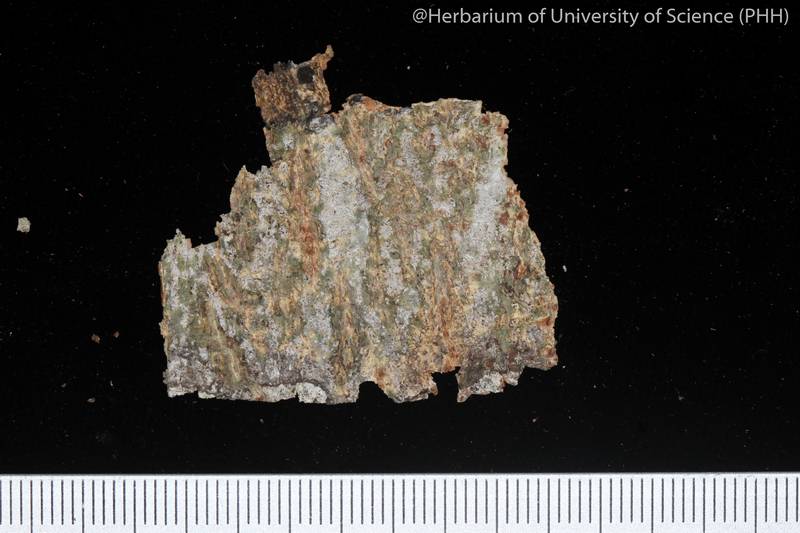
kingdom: Fungi
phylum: Ascomycota
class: Lecanoromycetes
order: Ostropales
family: Graphidaceae
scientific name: Graphidaceae
